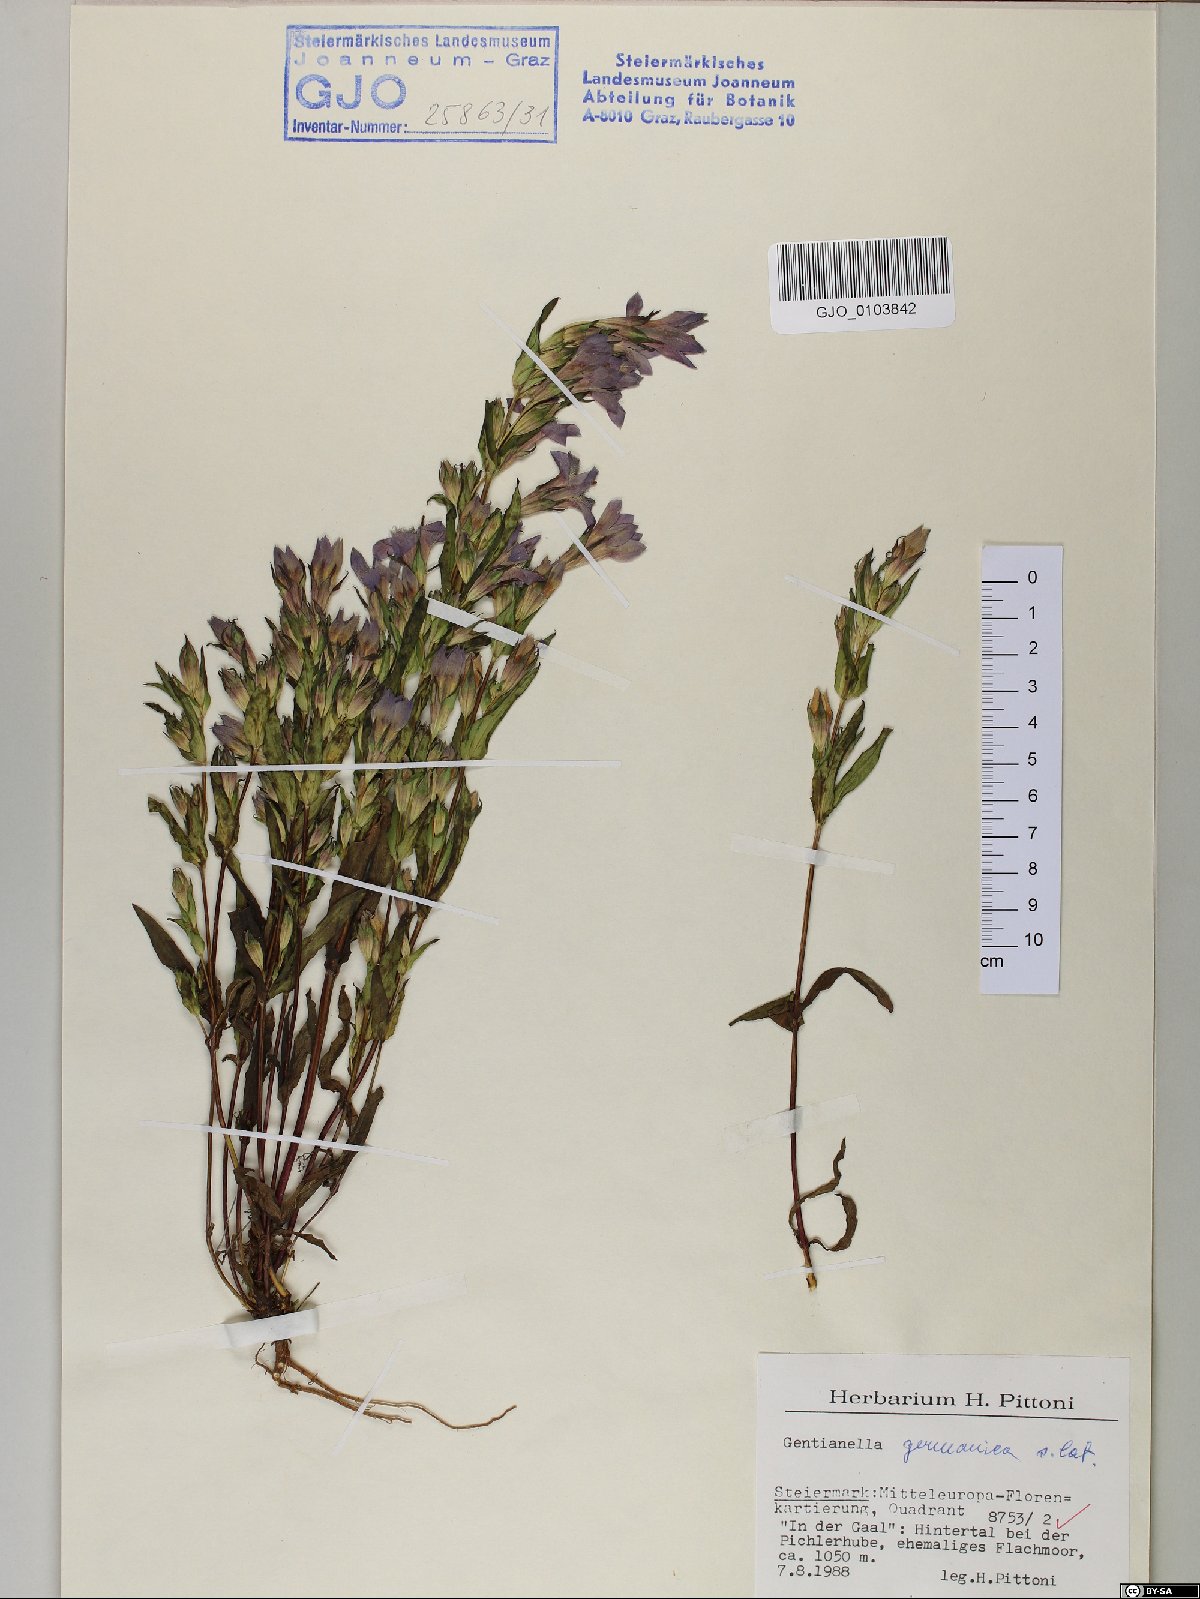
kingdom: Plantae
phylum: Tracheophyta
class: Magnoliopsida
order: Gentianales
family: Gentianaceae
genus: Gentianella
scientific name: Gentianella germanica
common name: Chiltern-gentian
